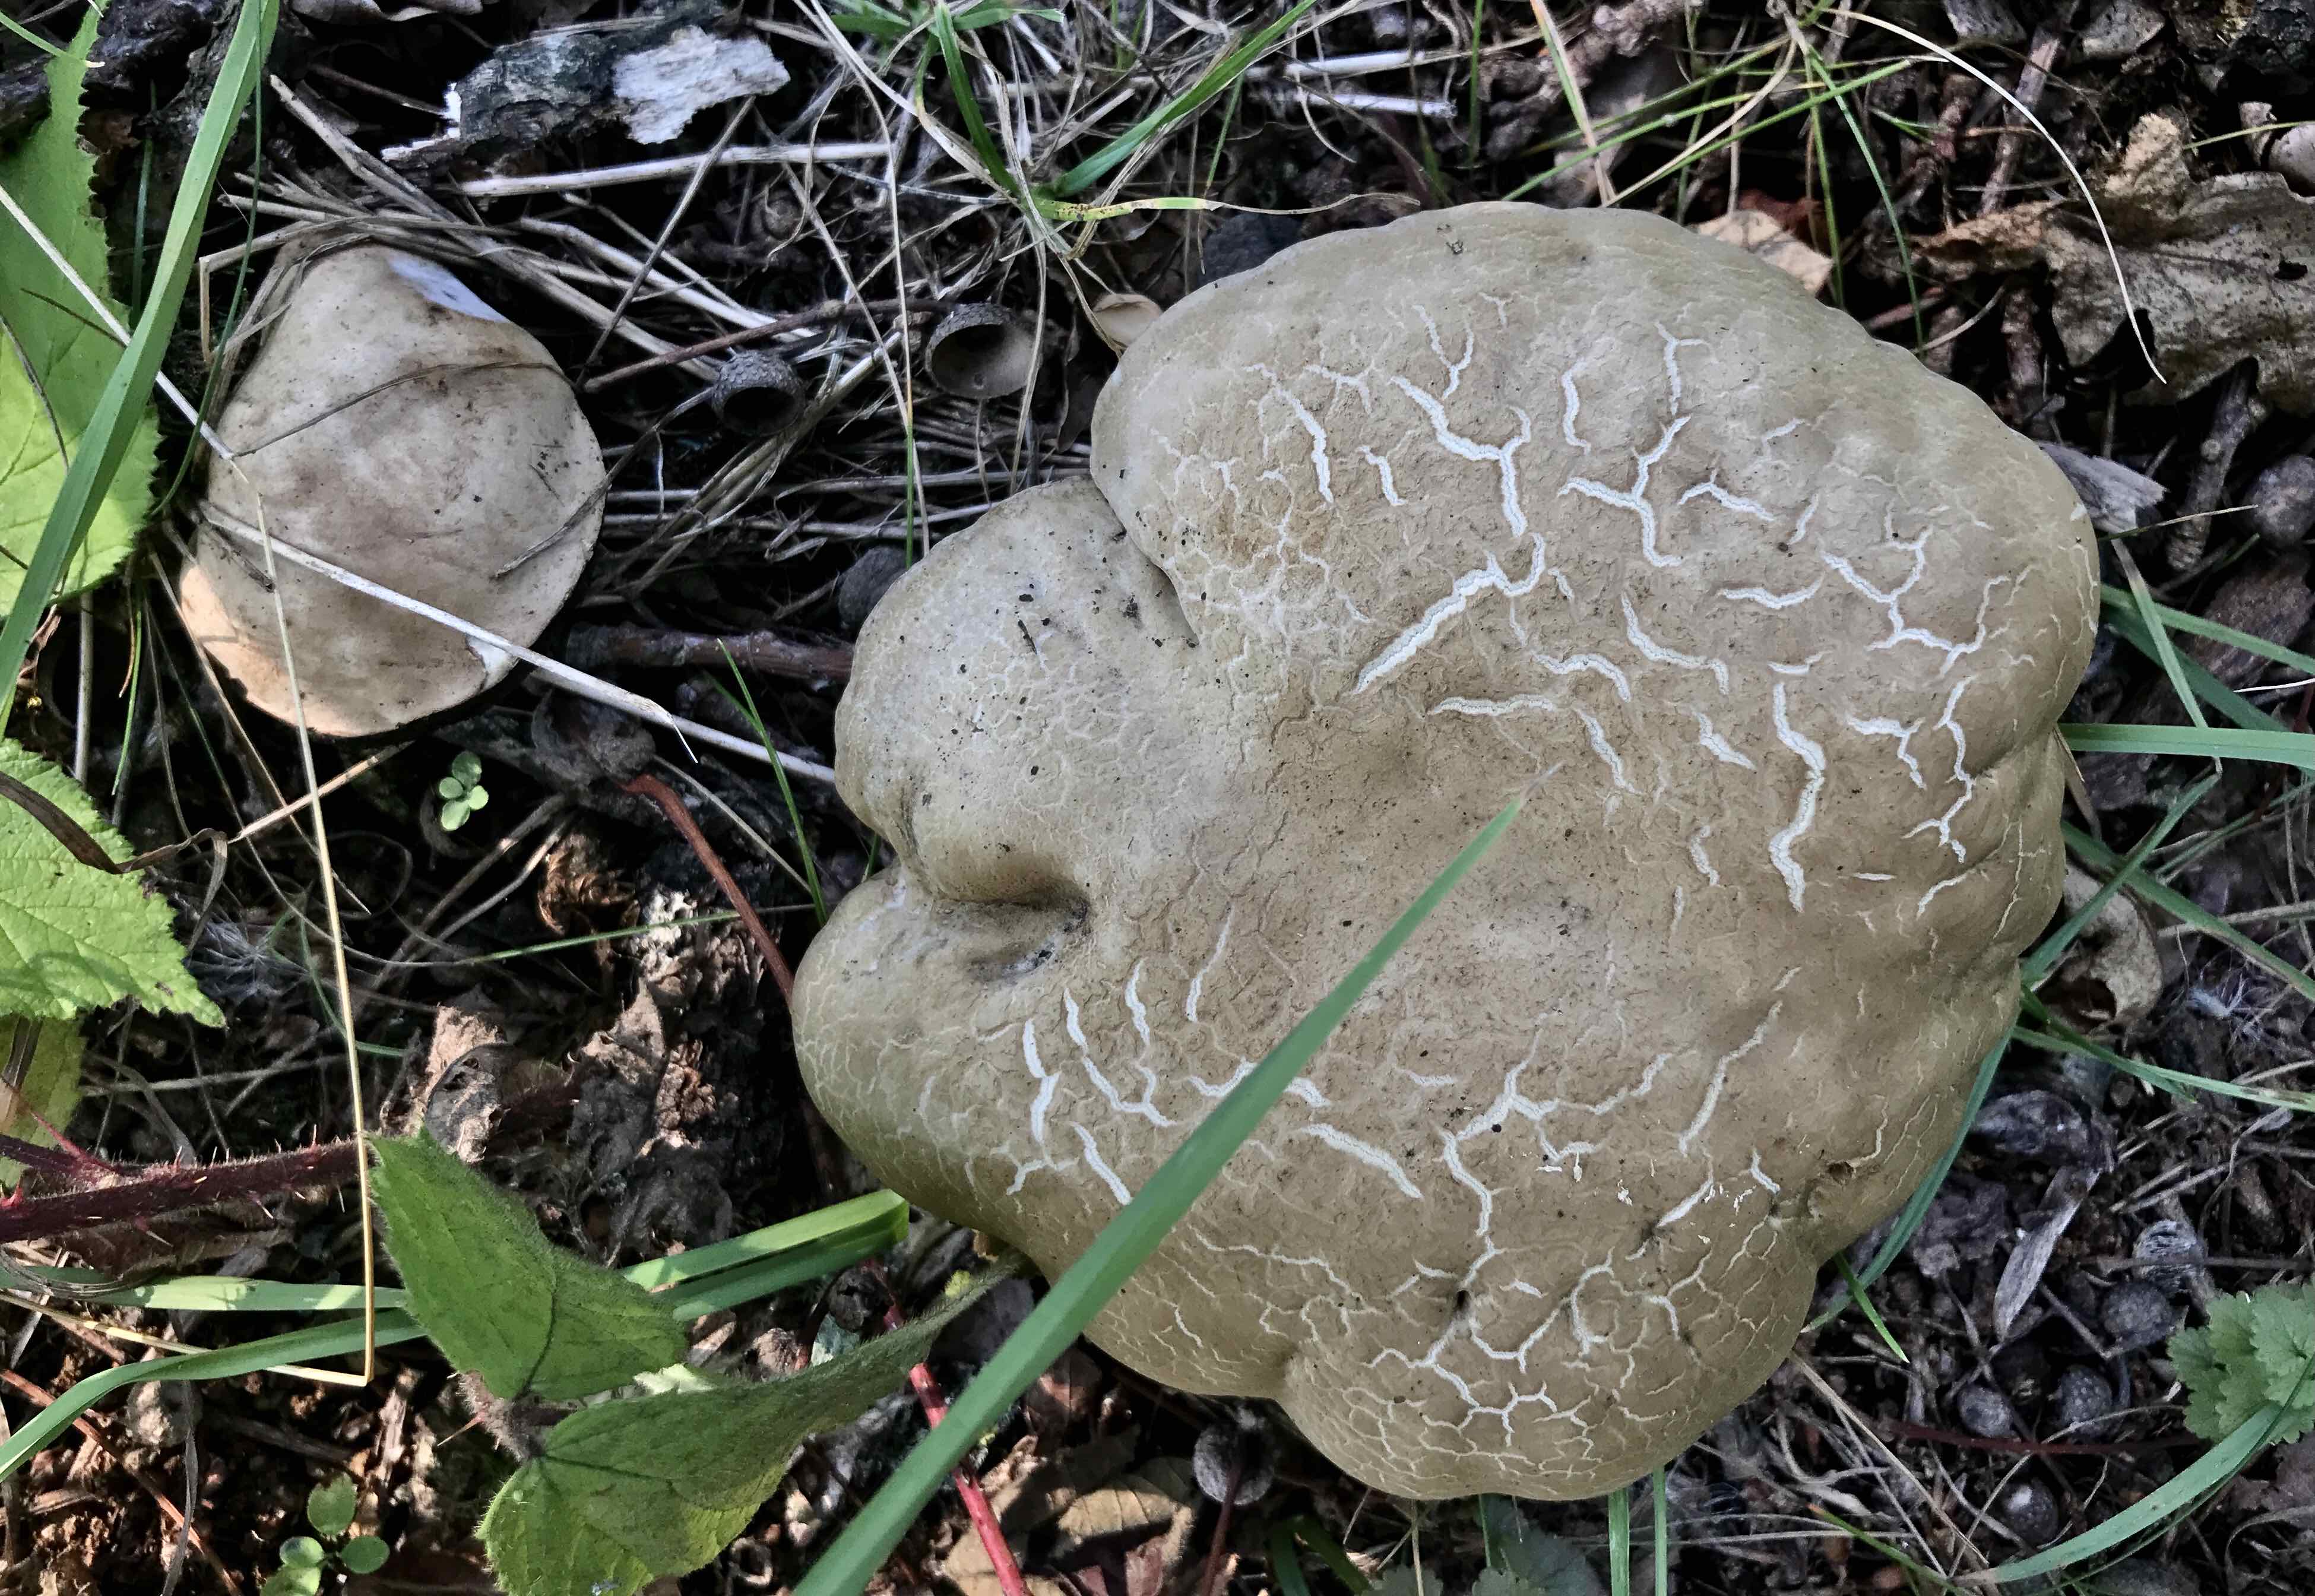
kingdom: Fungi
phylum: Basidiomycota
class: Agaricomycetes
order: Boletales
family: Boletaceae
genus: Caloboletus
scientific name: Caloboletus radicans
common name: rod-rørhat
